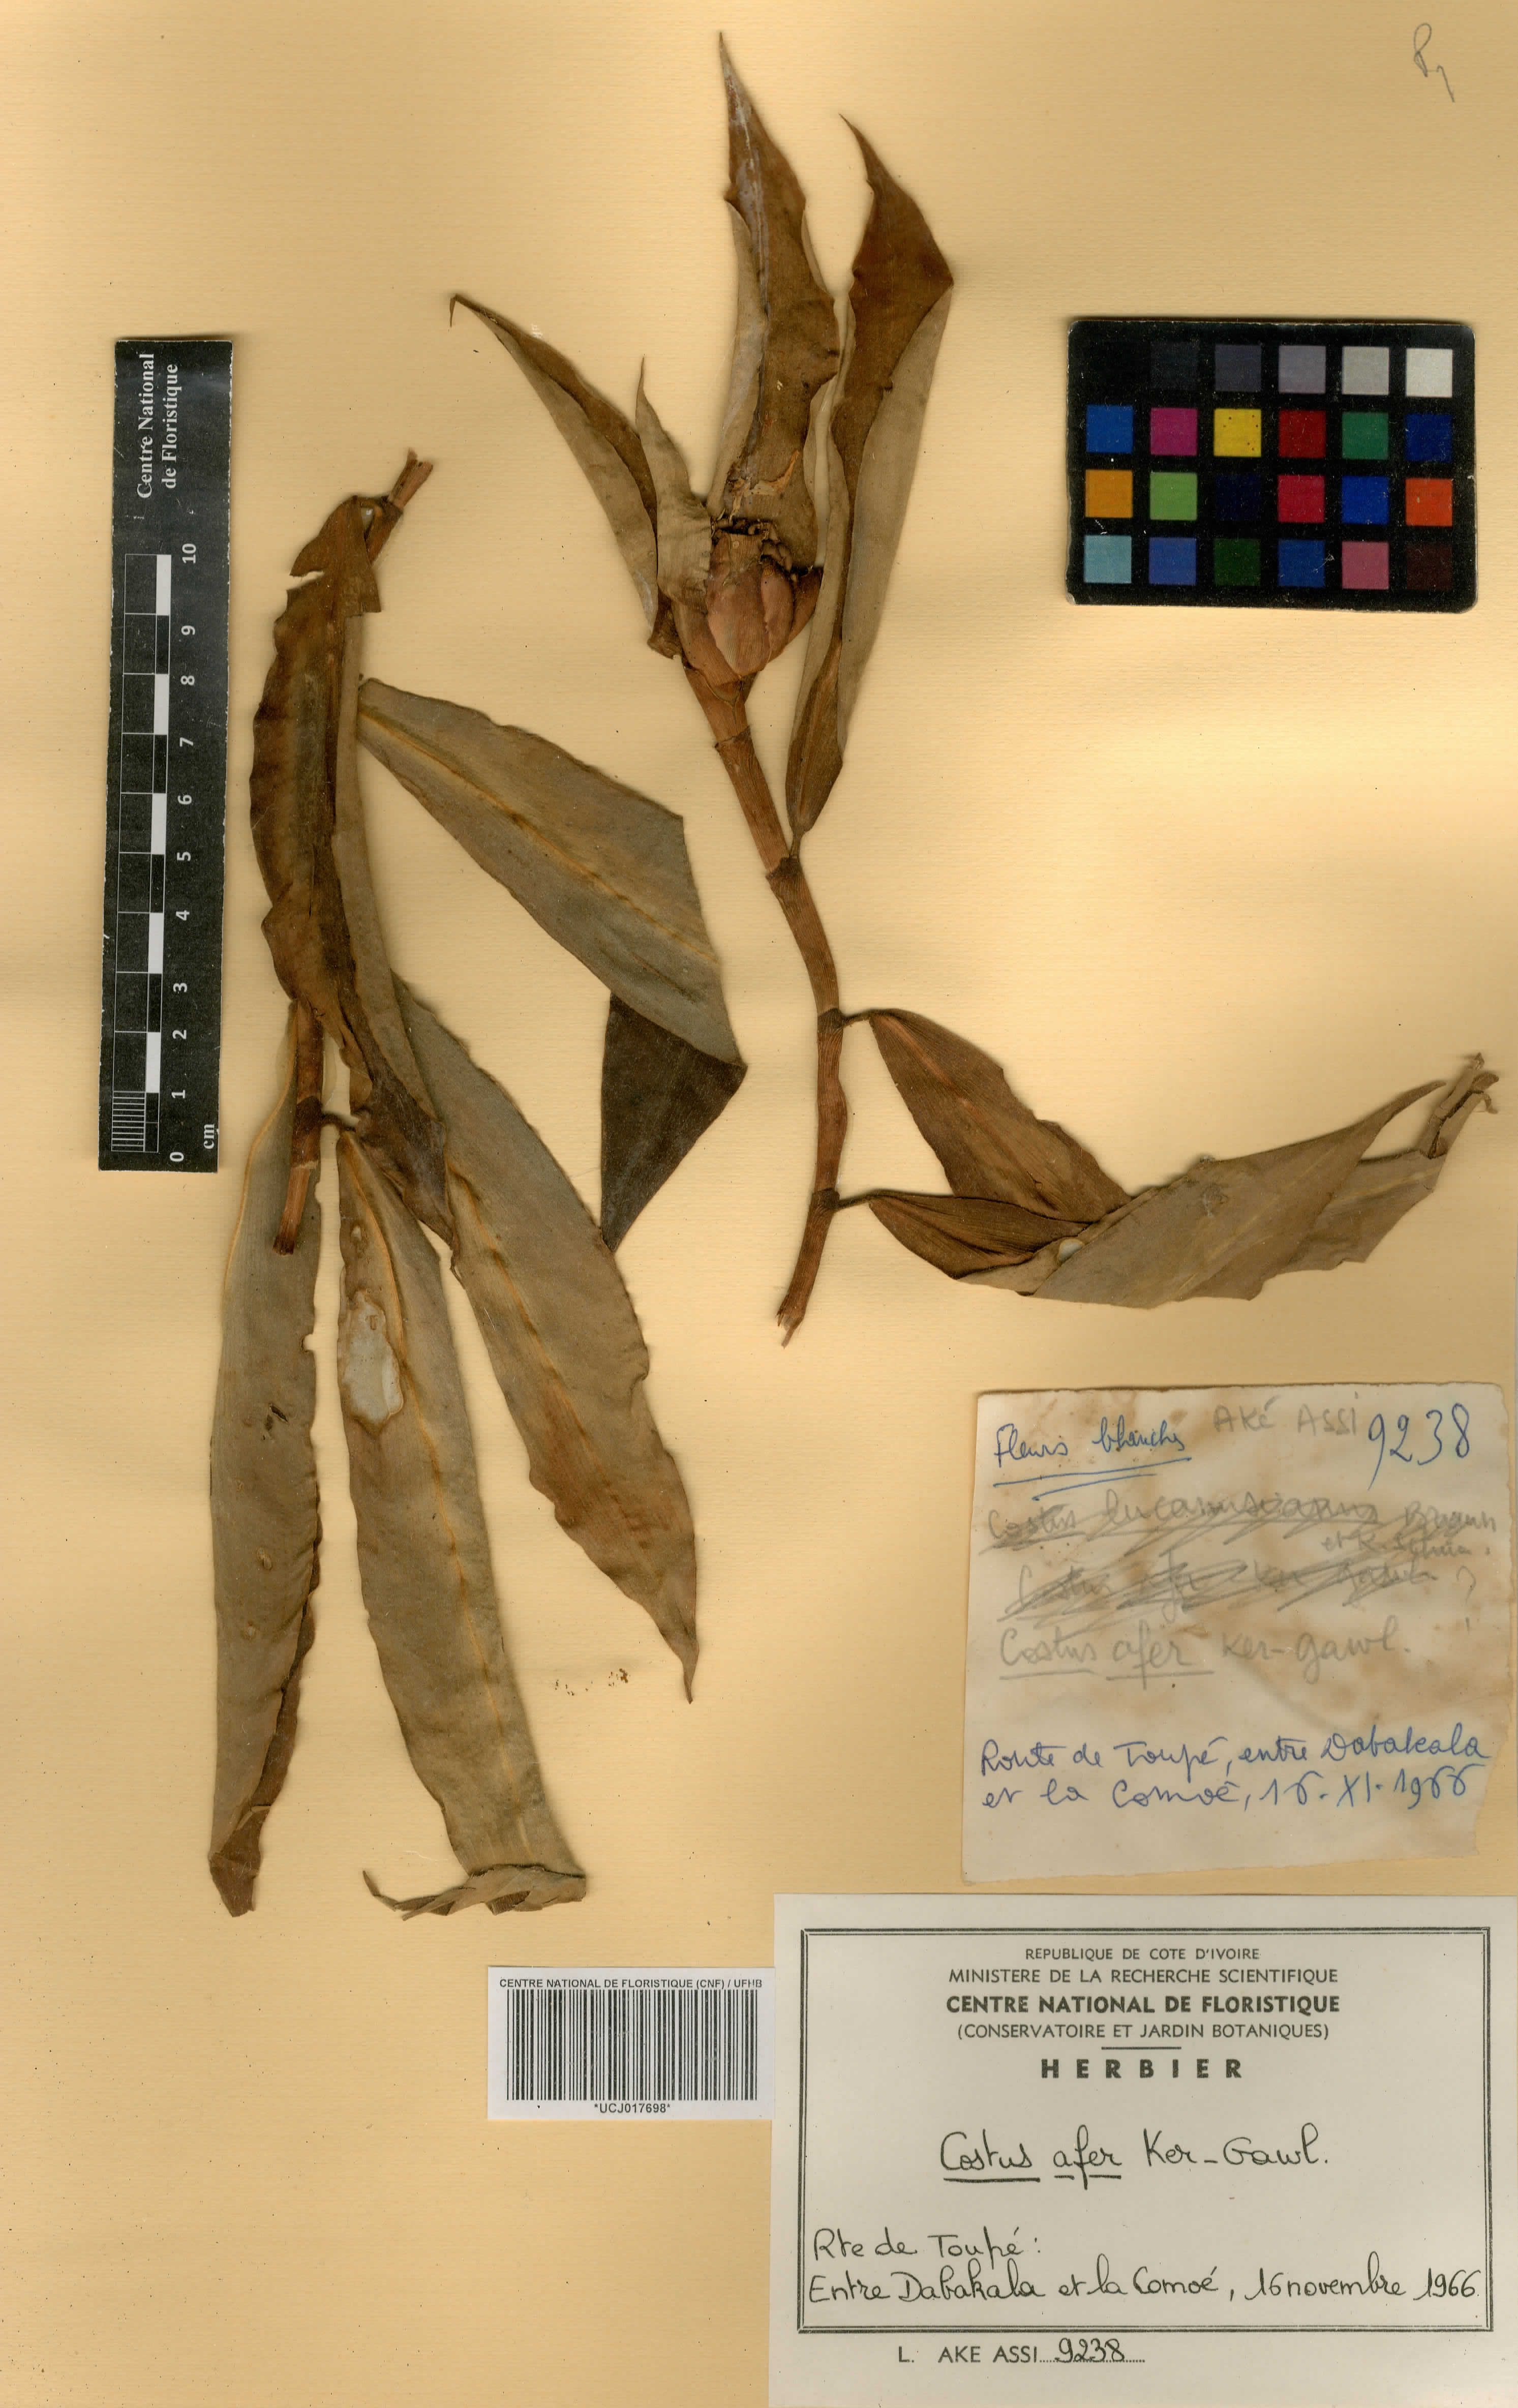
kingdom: Plantae
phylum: Tracheophyta
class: Liliopsida
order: Zingiberales
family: Costaceae
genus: Costus
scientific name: Costus afer
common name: Spiral-ginger
